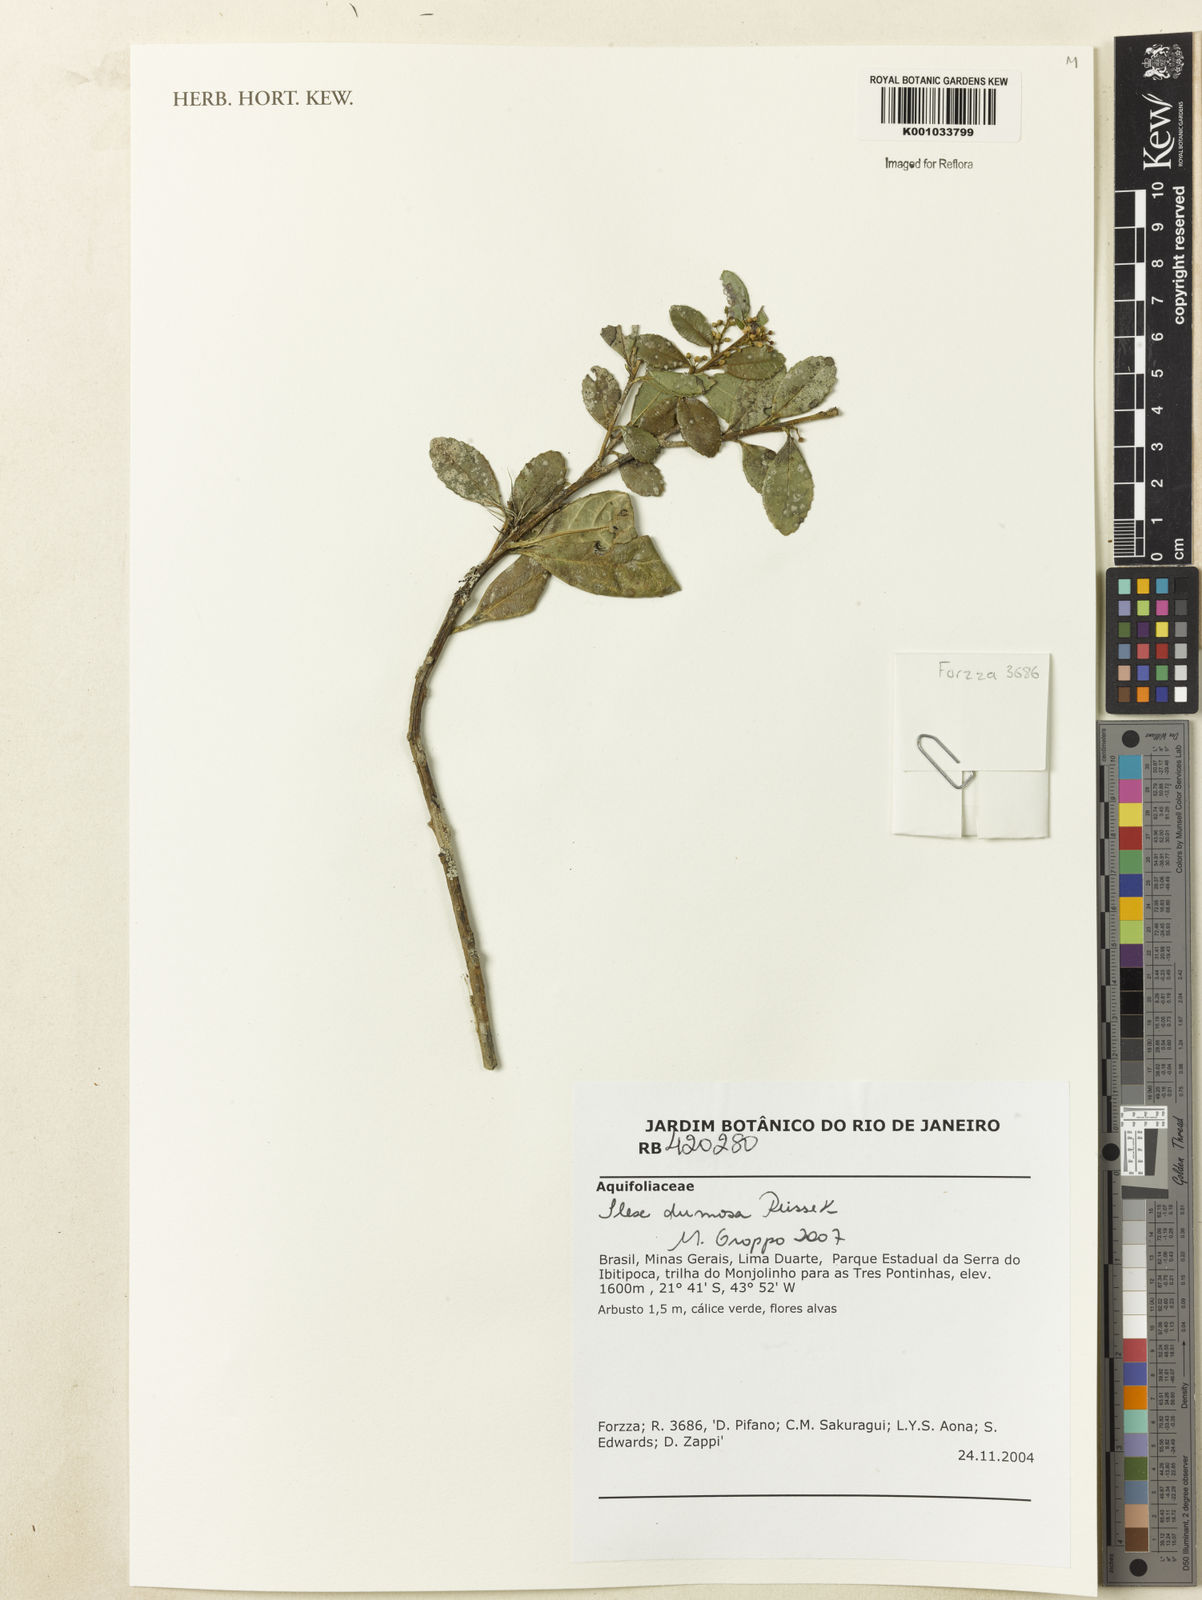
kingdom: Plantae
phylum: Tracheophyta
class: Magnoliopsida
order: Aquifoliales
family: Aquifoliaceae
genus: Ilex
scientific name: Ilex dumosa
